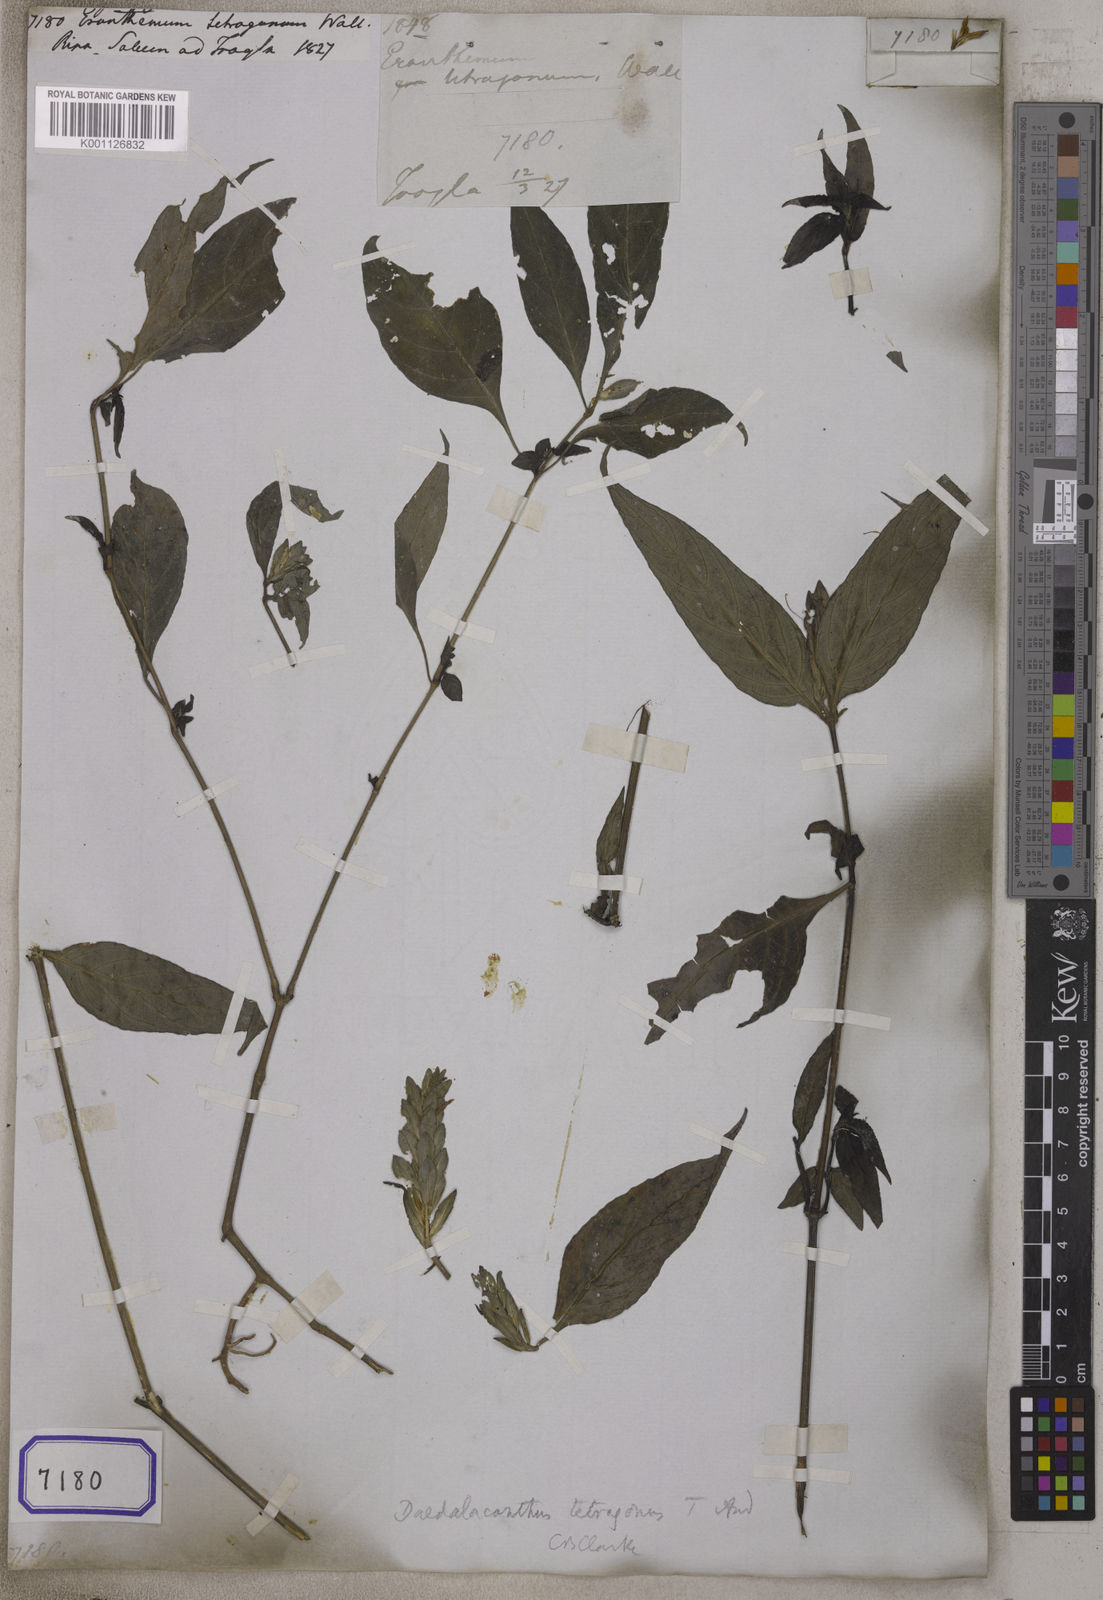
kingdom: Plantae
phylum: Tracheophyta
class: Magnoliopsida
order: Lamiales
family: Acanthaceae
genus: Eranthemum
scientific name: Eranthemum
